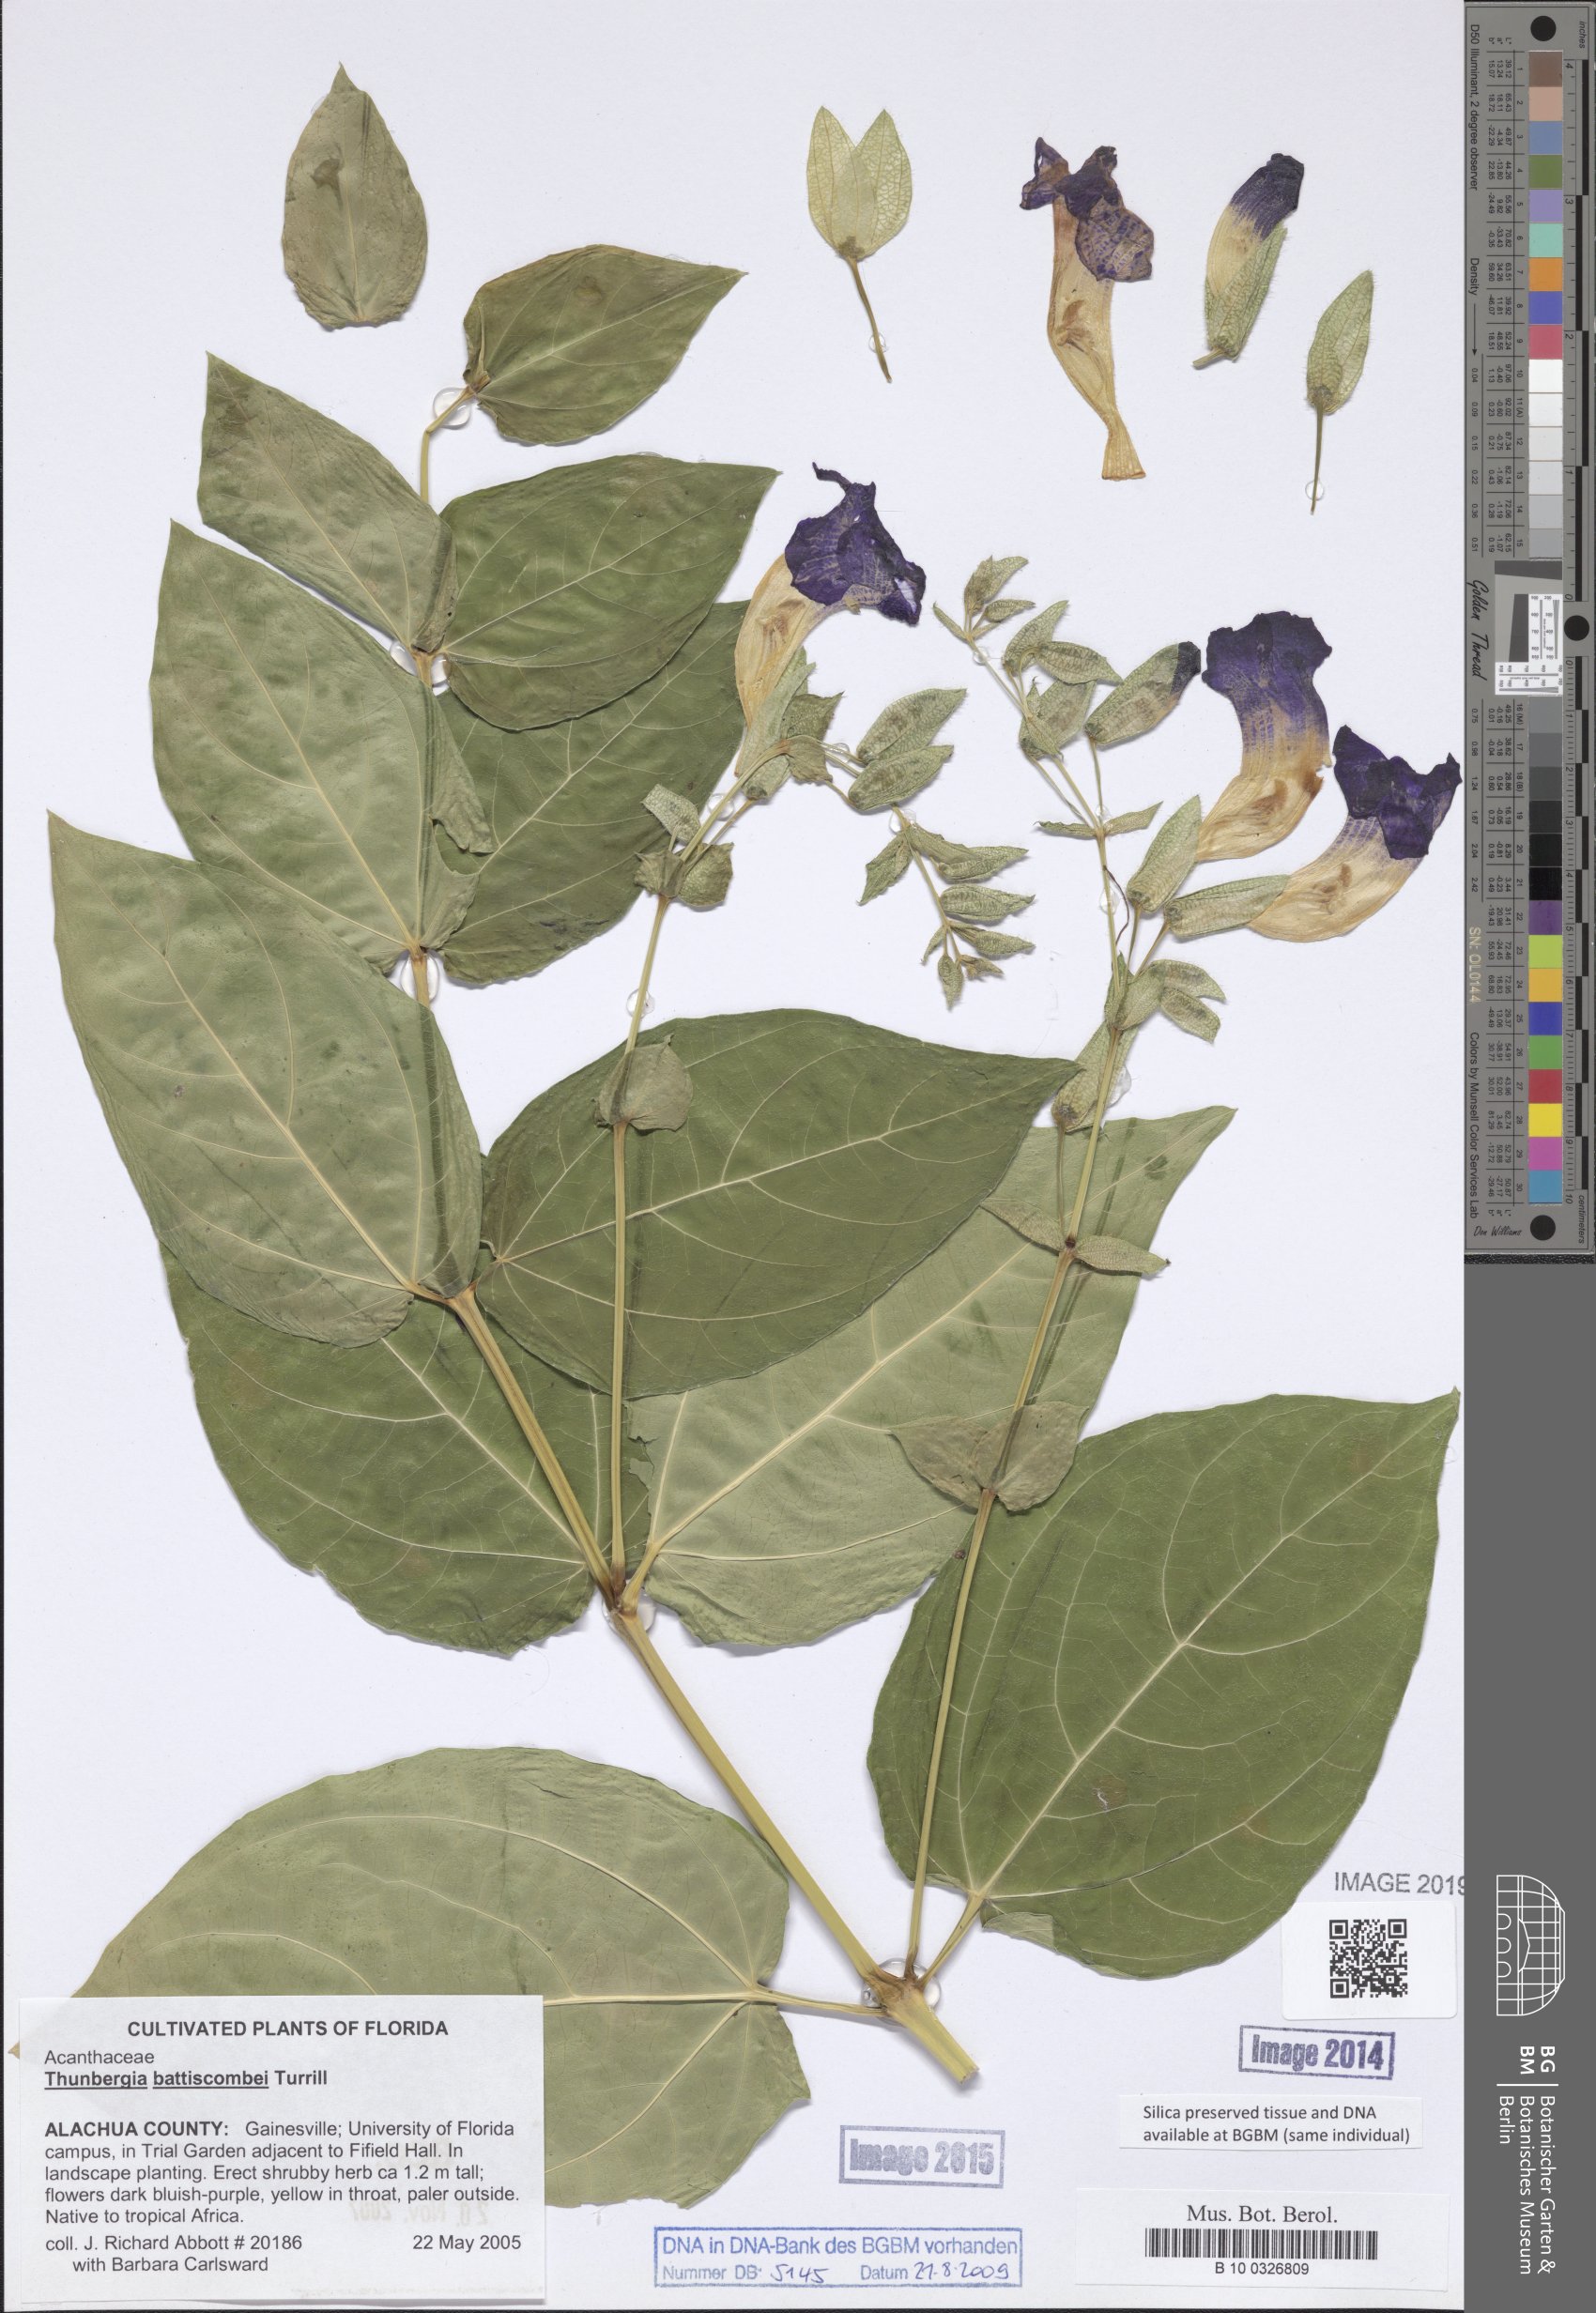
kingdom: Plantae
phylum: Tracheophyta
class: Magnoliopsida
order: Lamiales
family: Acanthaceae
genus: Thunbergia
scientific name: Thunbergia battiscombei
